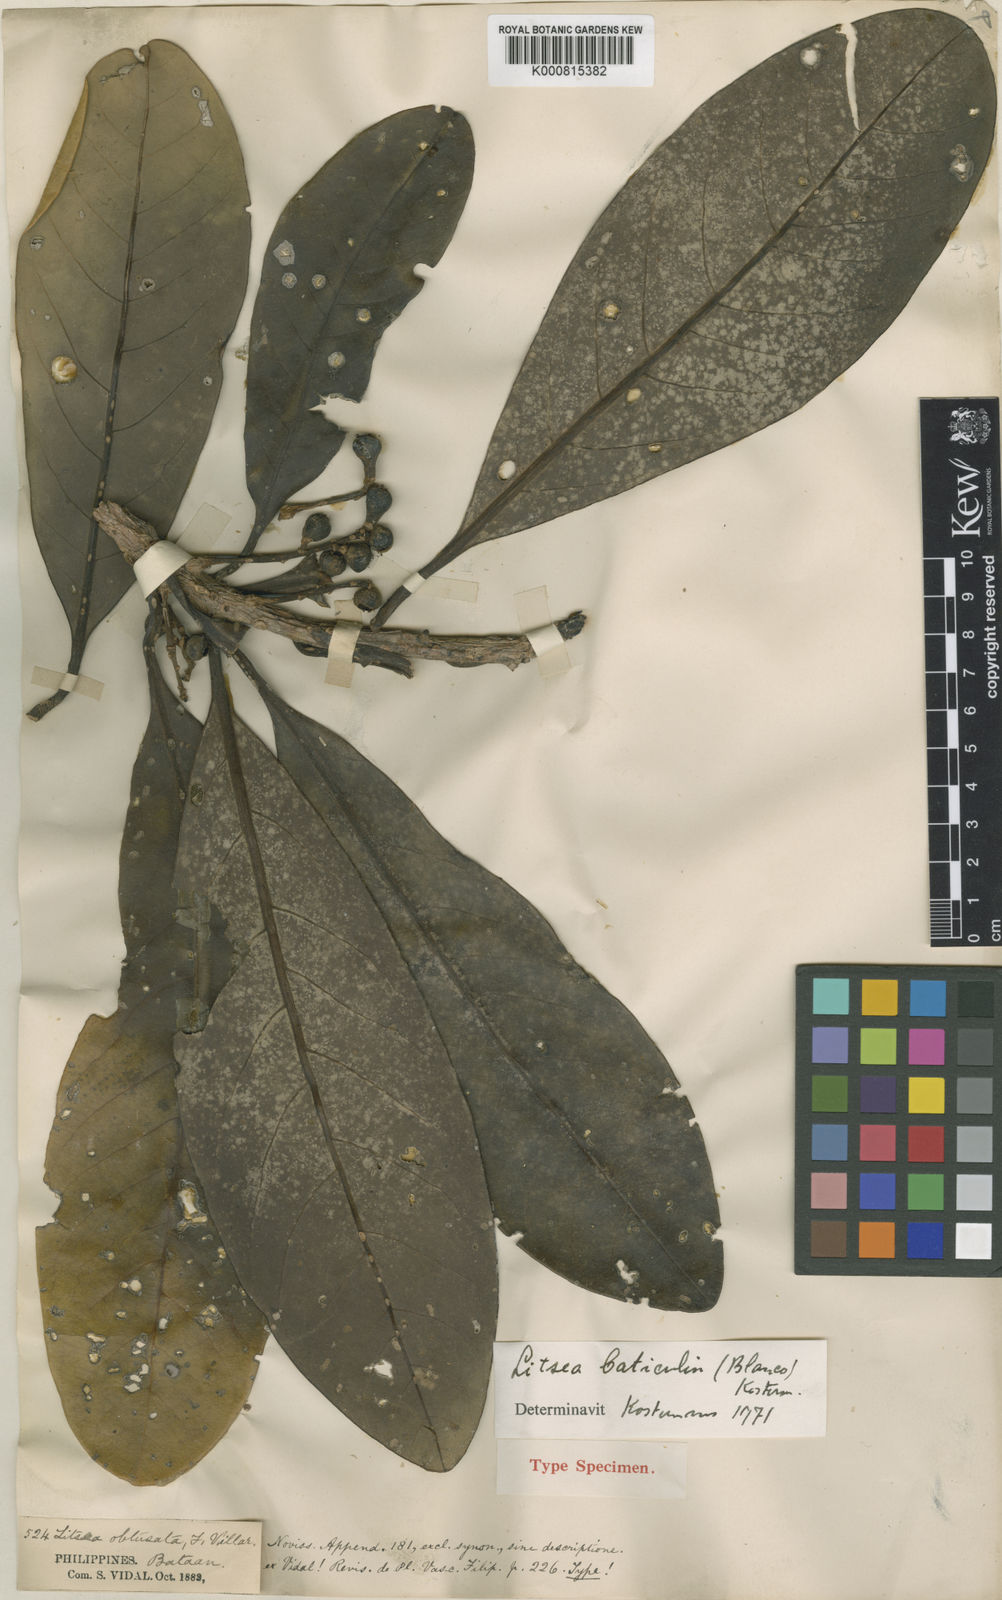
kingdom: Plantae
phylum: Tracheophyta
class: Magnoliopsida
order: Laurales
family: Lauraceae
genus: Litsea
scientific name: Litsea baticulin
